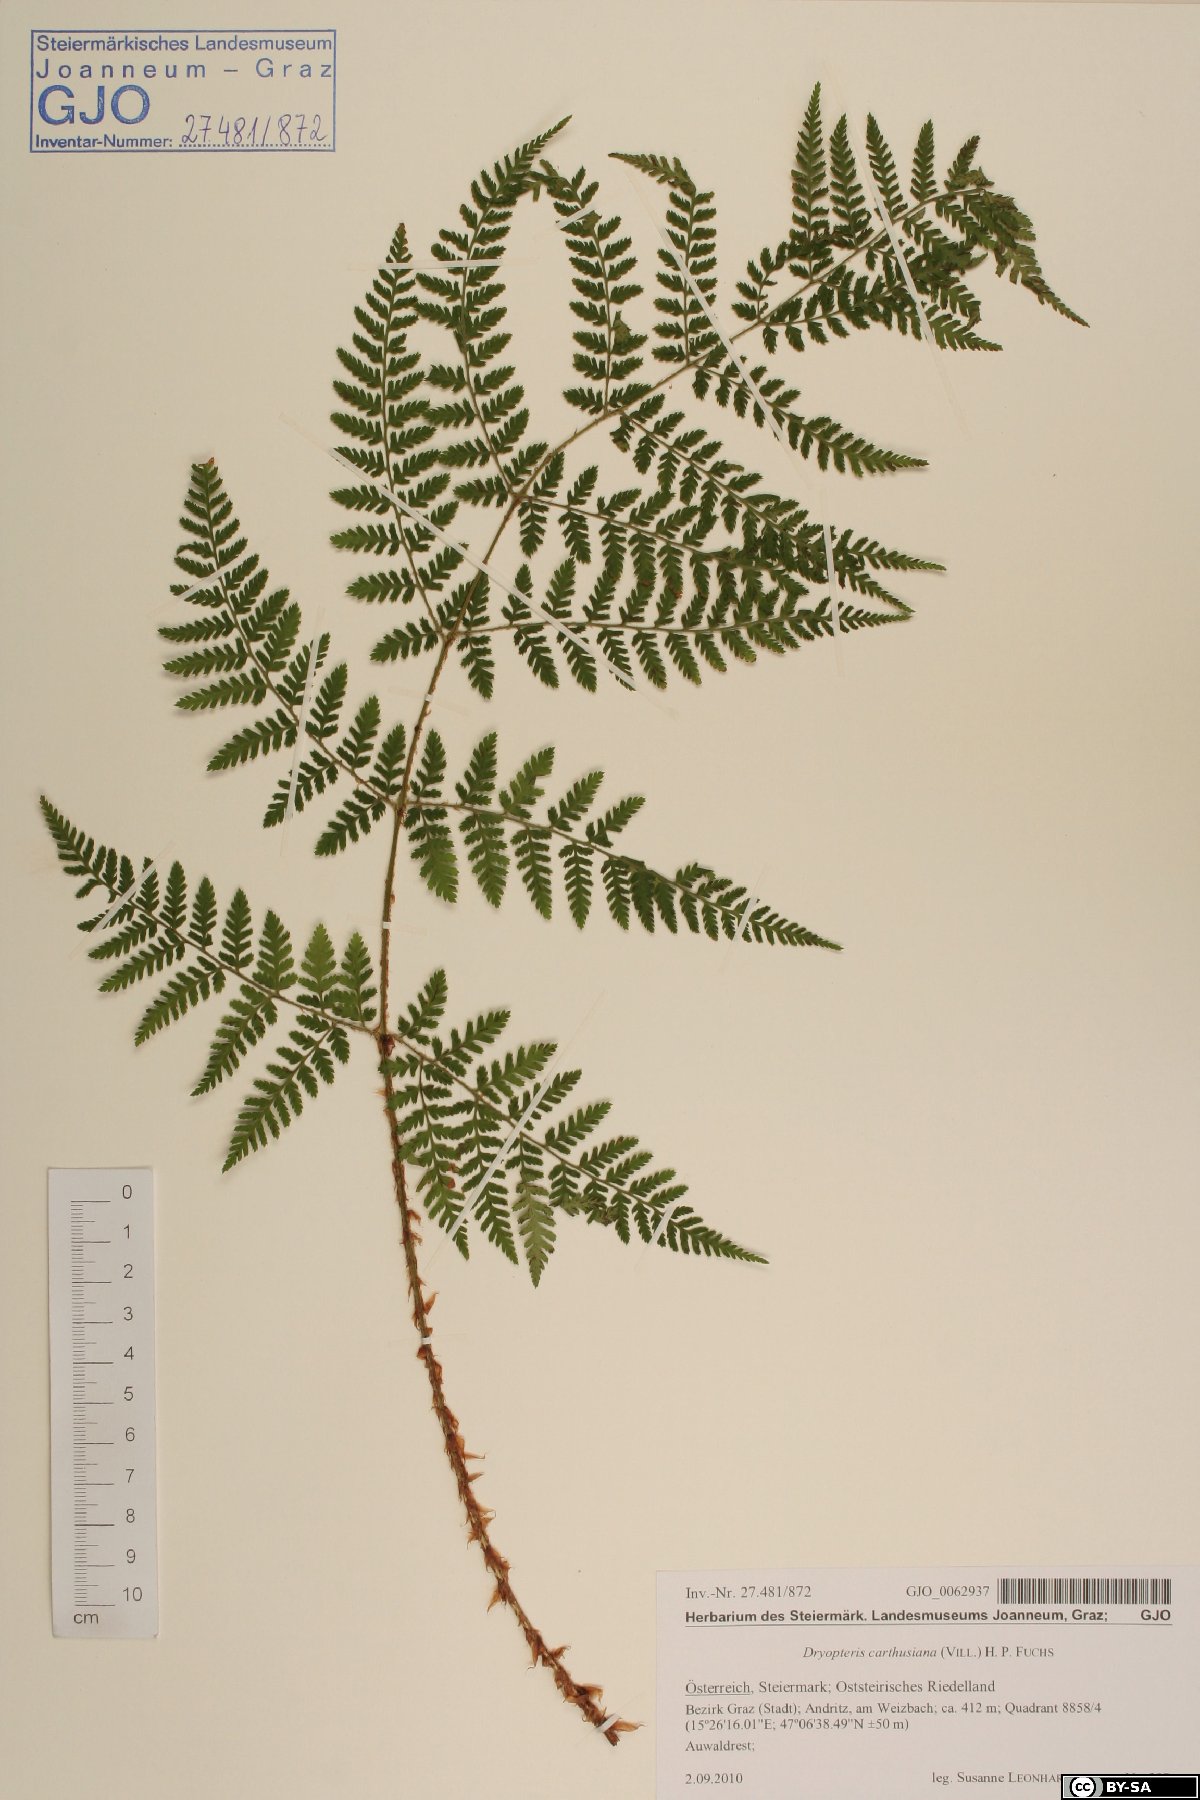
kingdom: Plantae
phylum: Tracheophyta
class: Polypodiopsida
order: Polypodiales
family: Dryopteridaceae
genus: Dryopteris
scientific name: Dryopteris carthusiana
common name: Narrow buckler-fern
